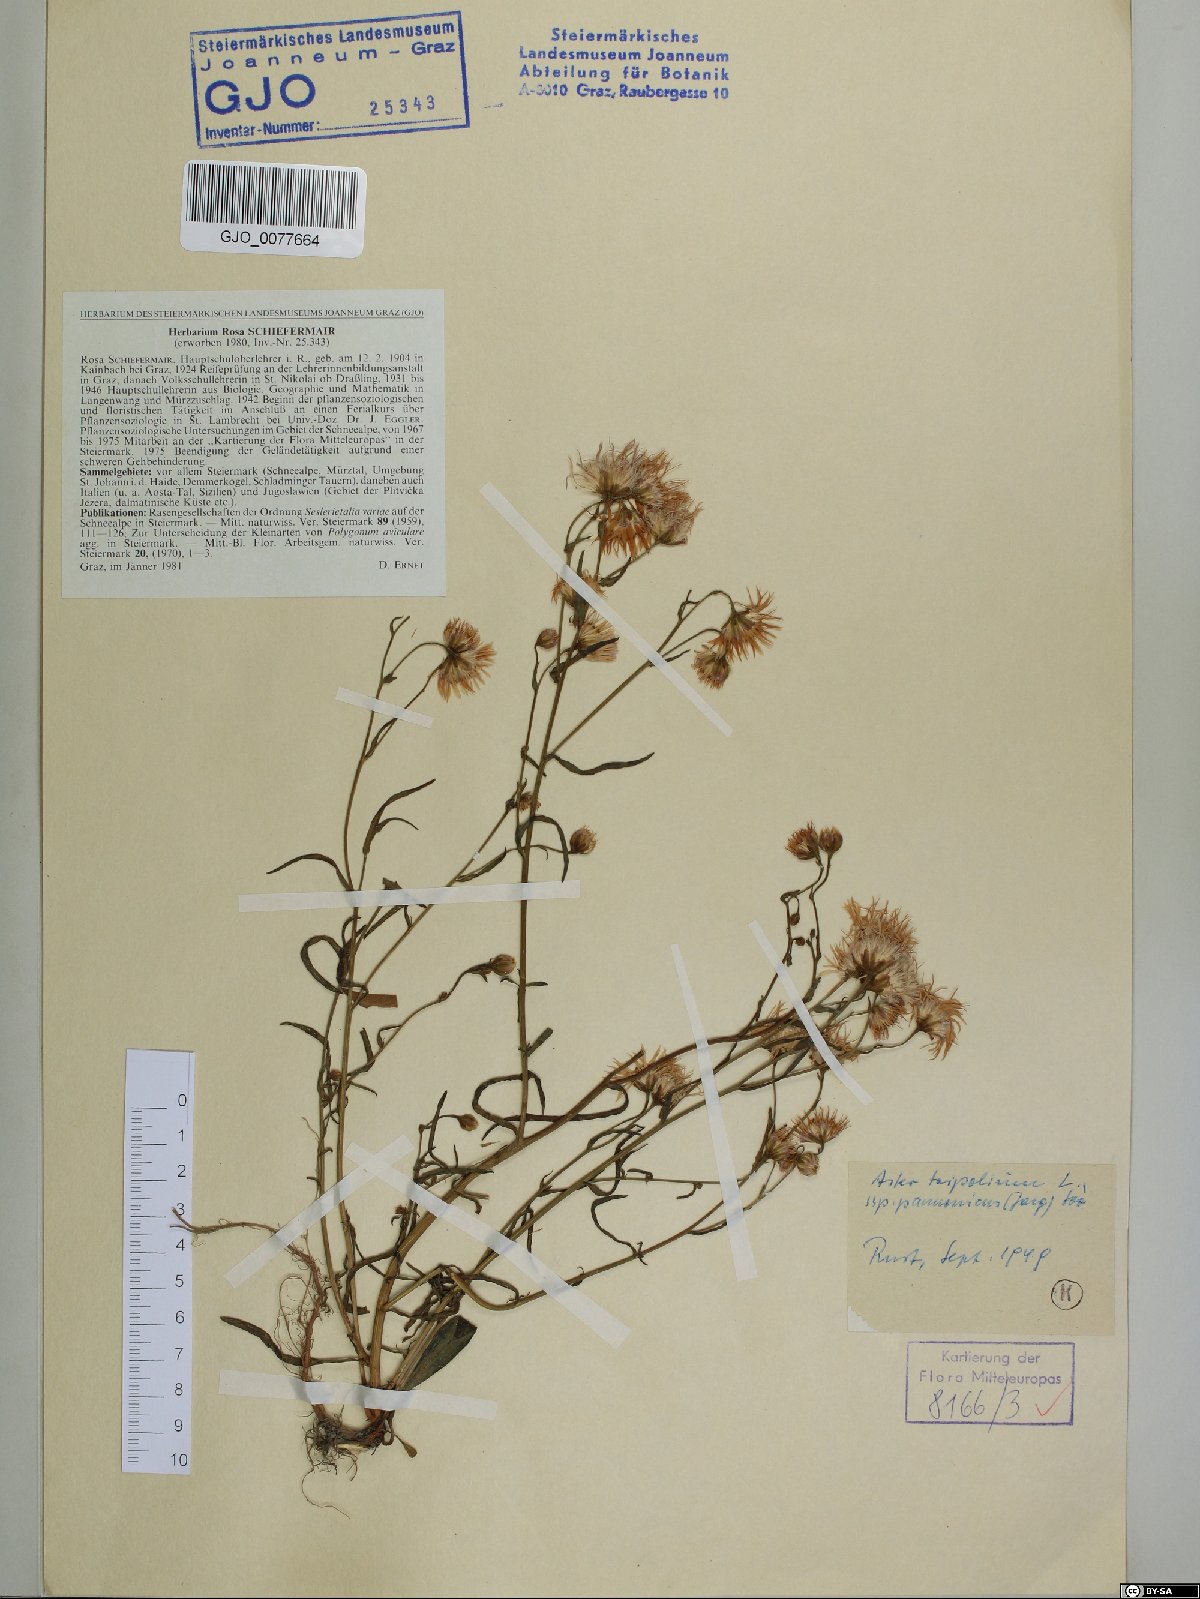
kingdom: Plantae
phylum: Tracheophyta
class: Magnoliopsida
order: Asterales
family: Asteraceae
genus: Tripolium
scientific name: Tripolium pannonicum
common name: Sea aster
